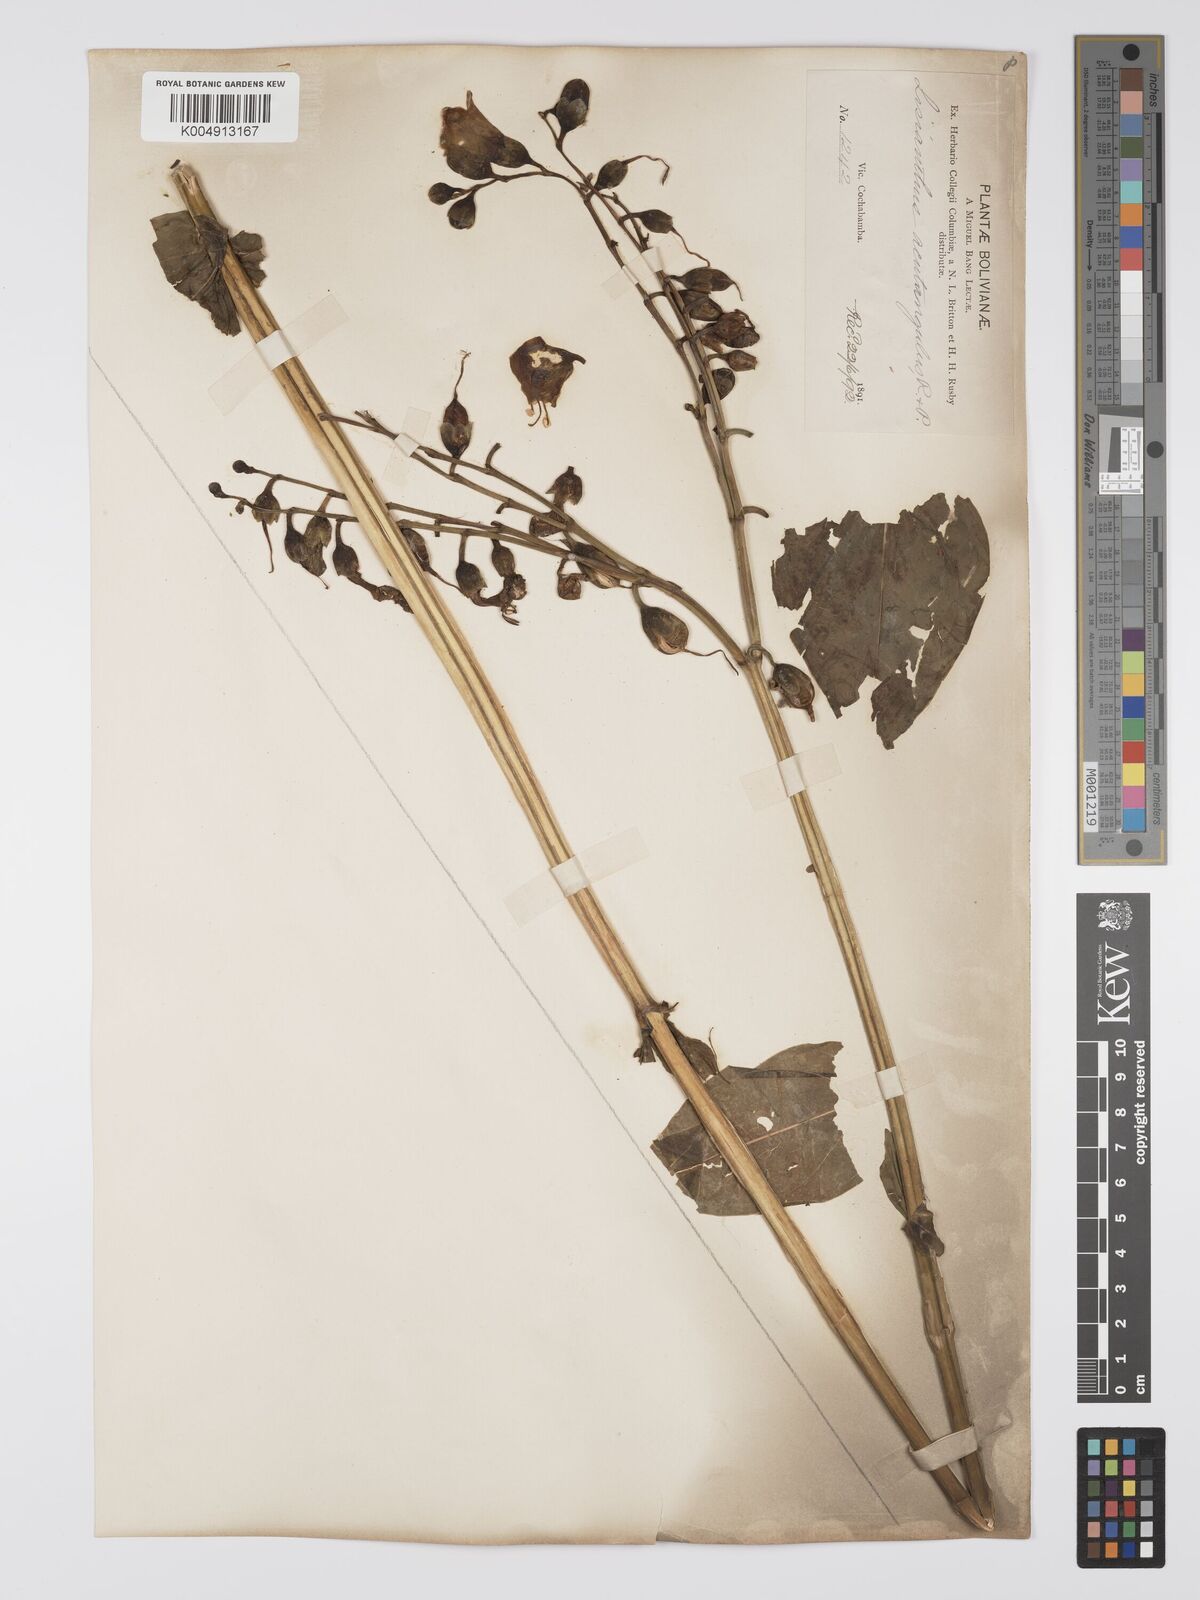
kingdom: Plantae
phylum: Tracheophyta
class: Magnoliopsida
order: Gentianales
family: Gentianaceae
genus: Chelonanthus
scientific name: Chelonanthus alatus
